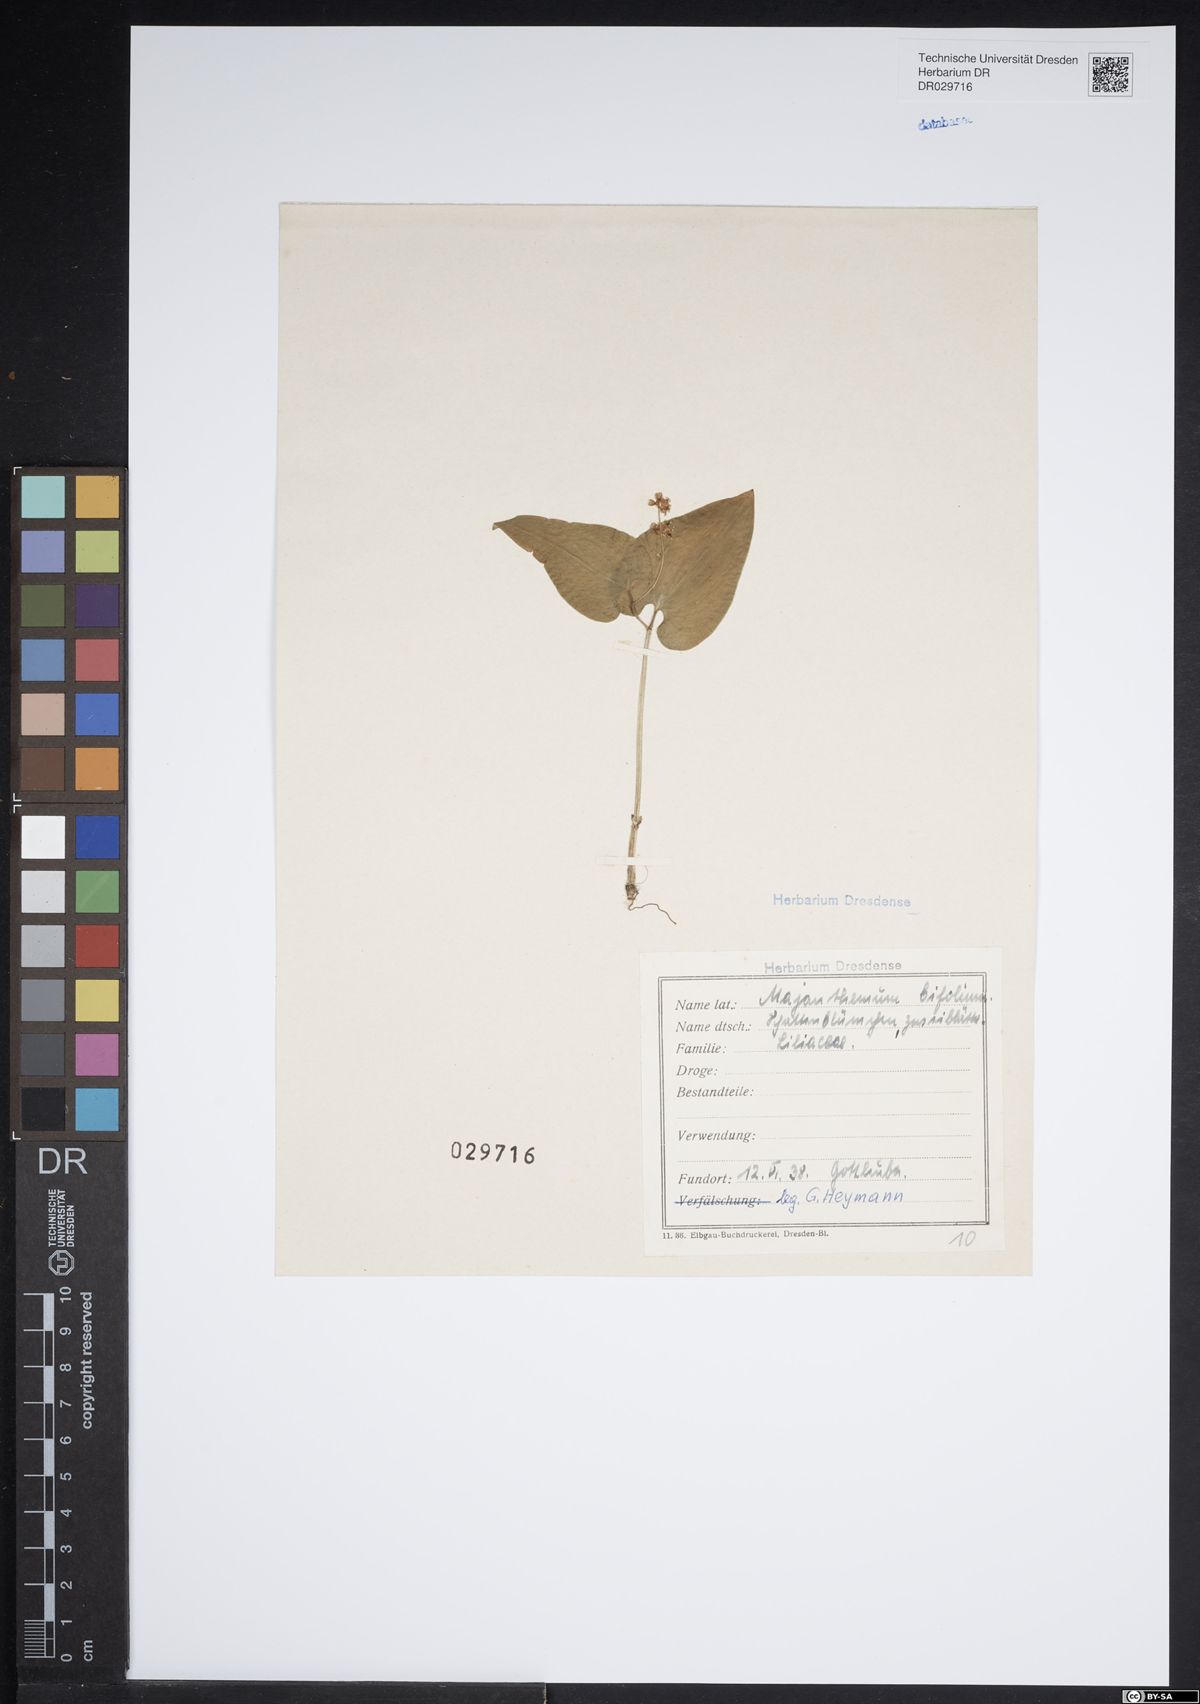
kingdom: Plantae
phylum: Tracheophyta
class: Liliopsida
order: Asparagales
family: Asparagaceae
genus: Maianthemum
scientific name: Maianthemum bifolium
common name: May lily
